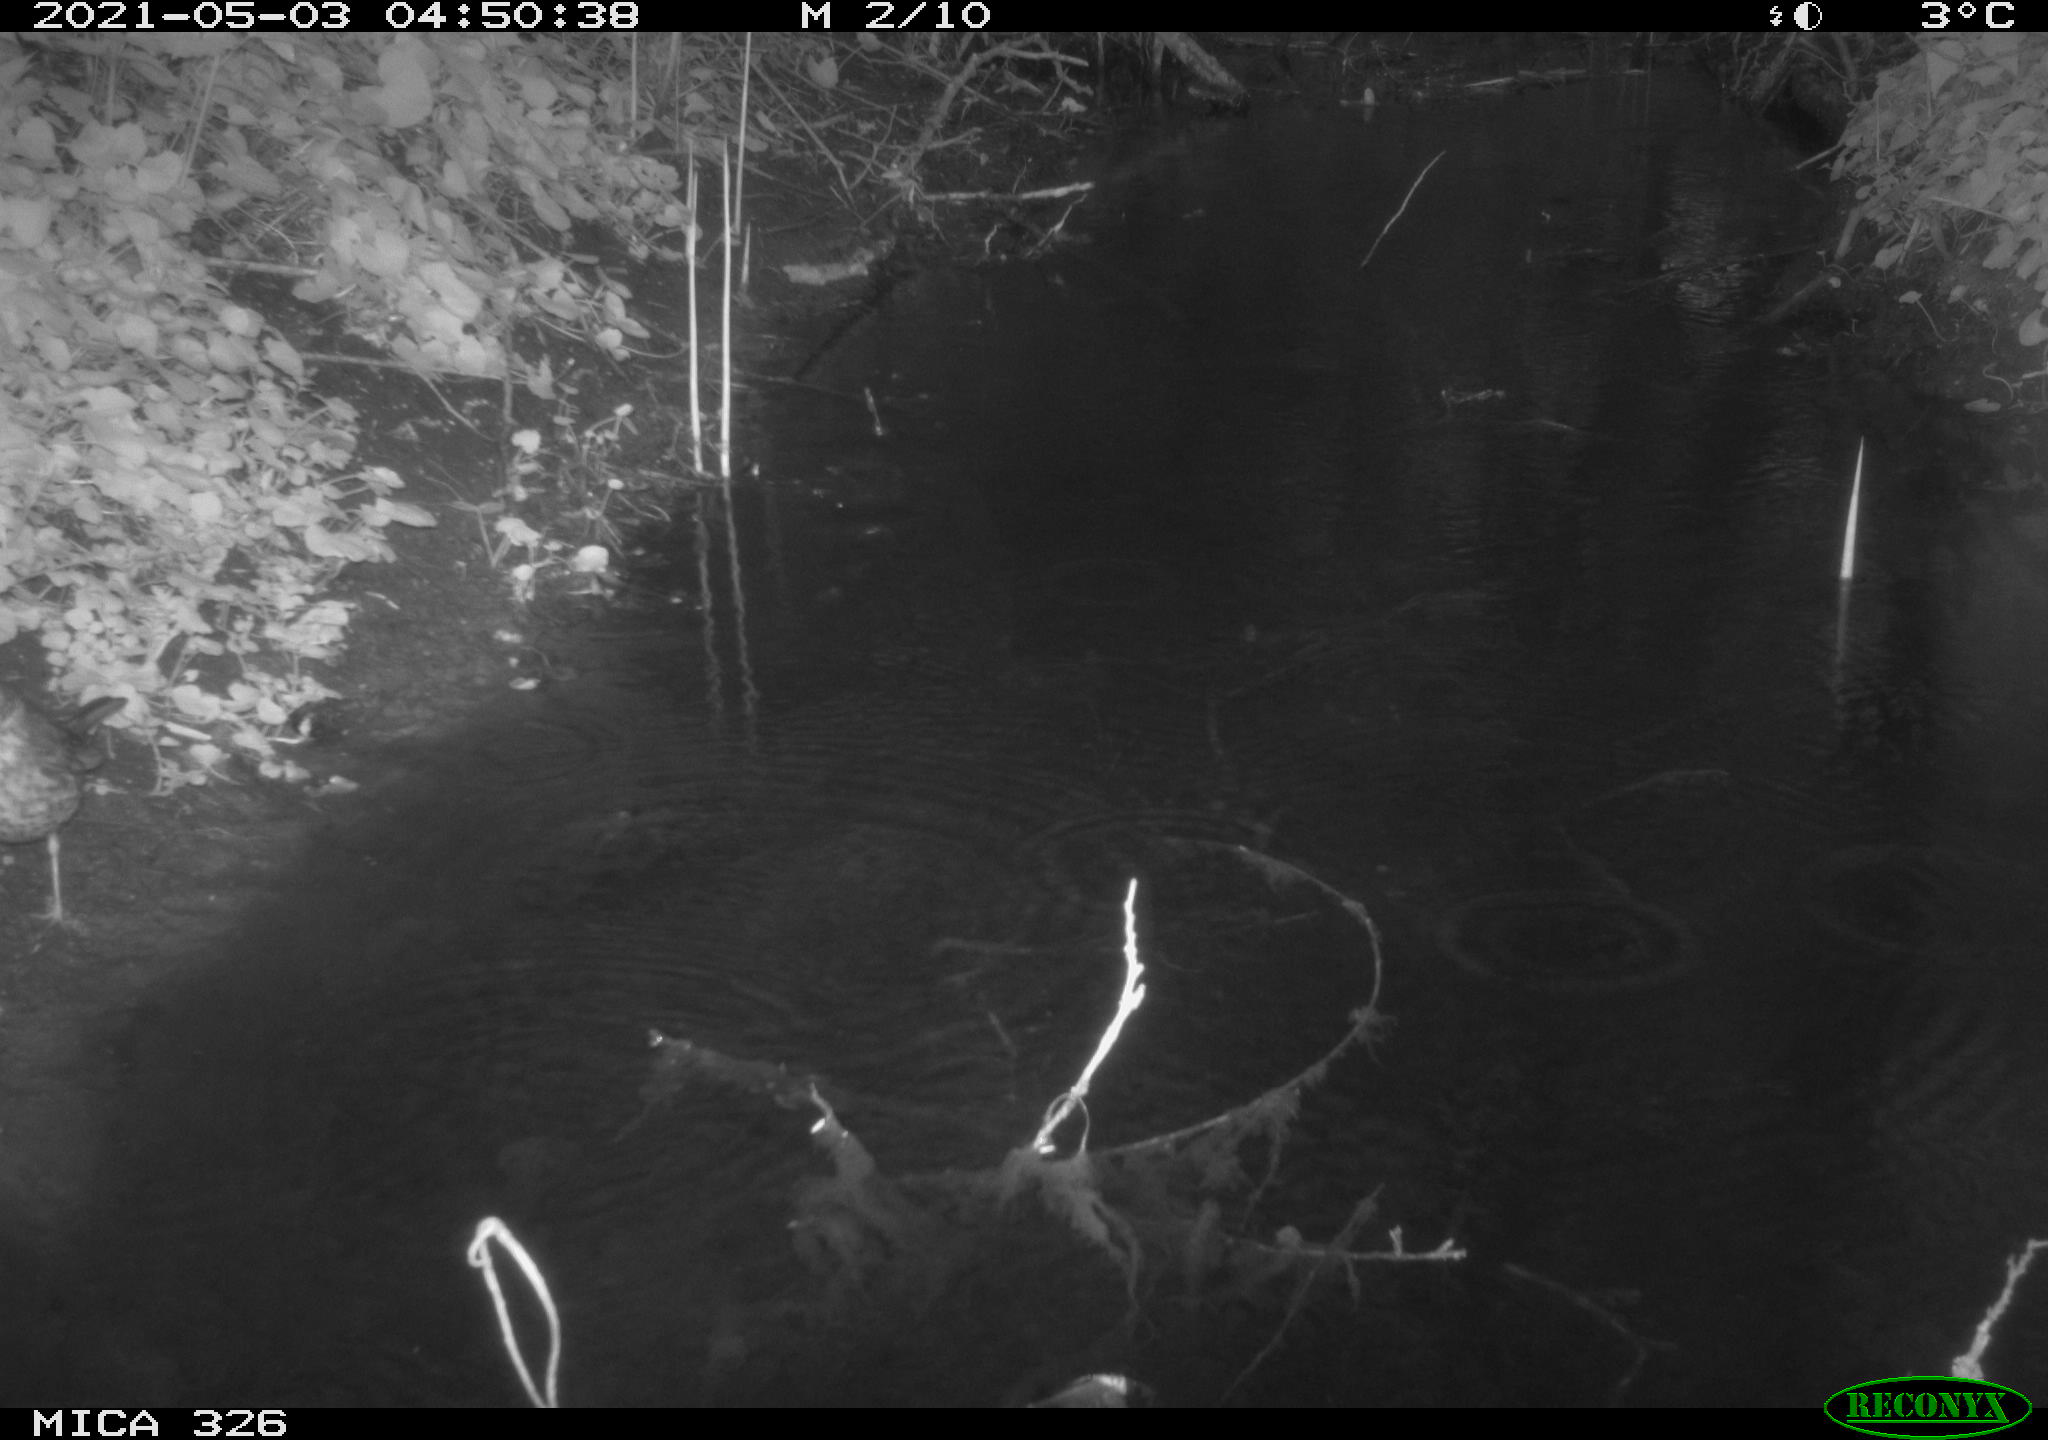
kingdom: Animalia
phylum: Chordata
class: Aves
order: Passeriformes
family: Turdidae
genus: Turdus
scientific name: Turdus philomelos
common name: Song thrush
